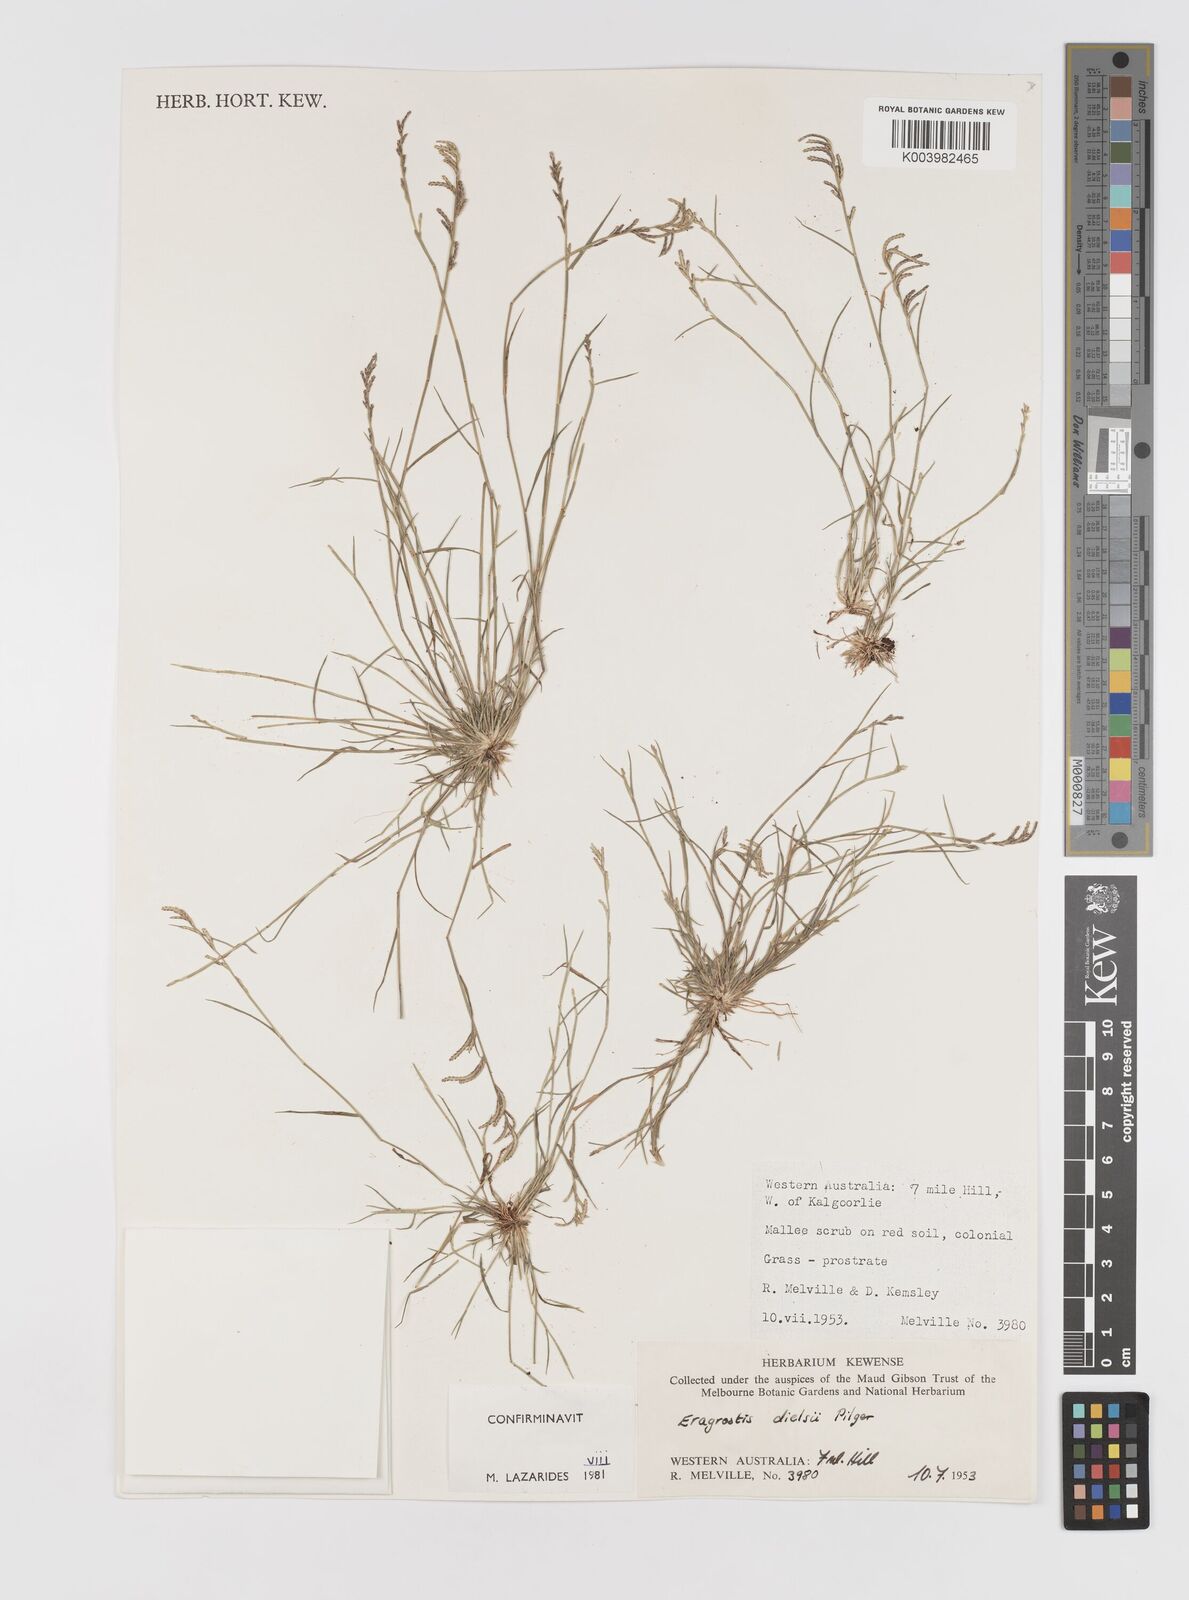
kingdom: Plantae
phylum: Tracheophyta
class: Liliopsida
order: Poales
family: Poaceae
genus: Eragrostis
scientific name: Eragrostis dielsii
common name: Lovegrass
